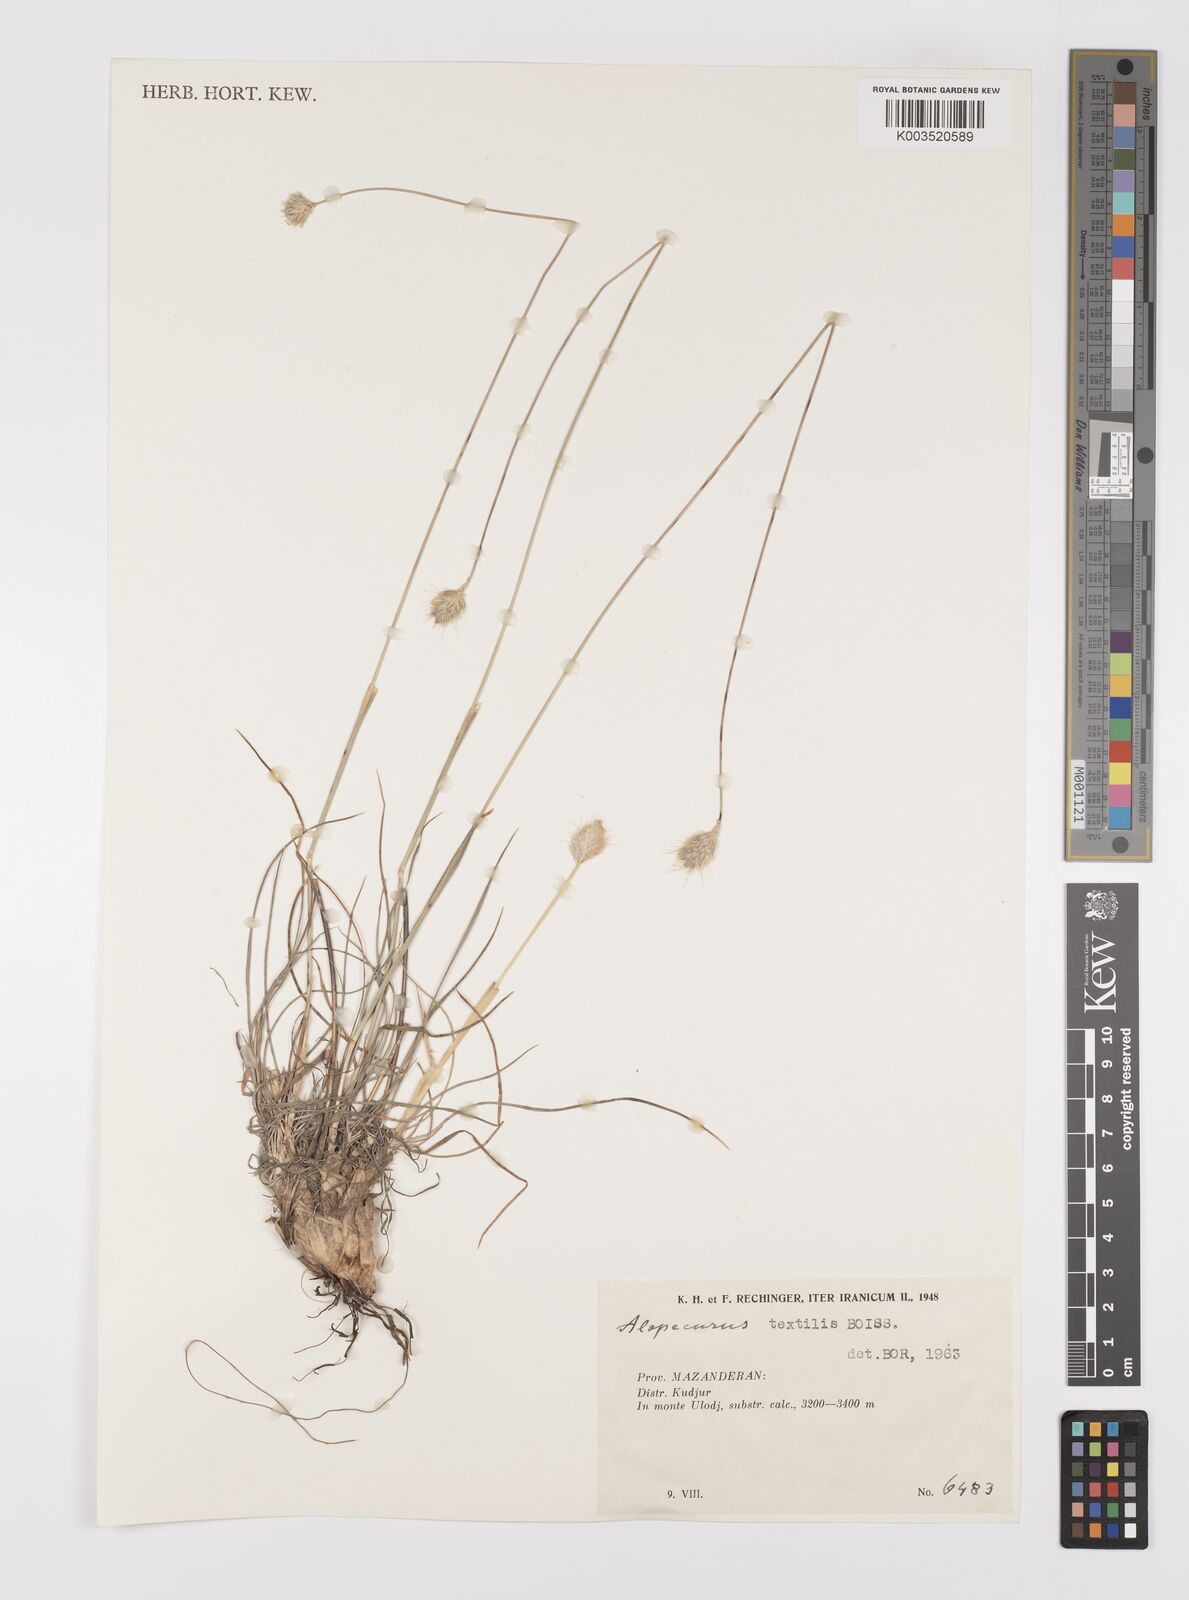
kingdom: Plantae
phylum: Tracheophyta
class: Liliopsida
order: Poales
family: Poaceae
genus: Alopecurus
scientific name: Alopecurus textilis
